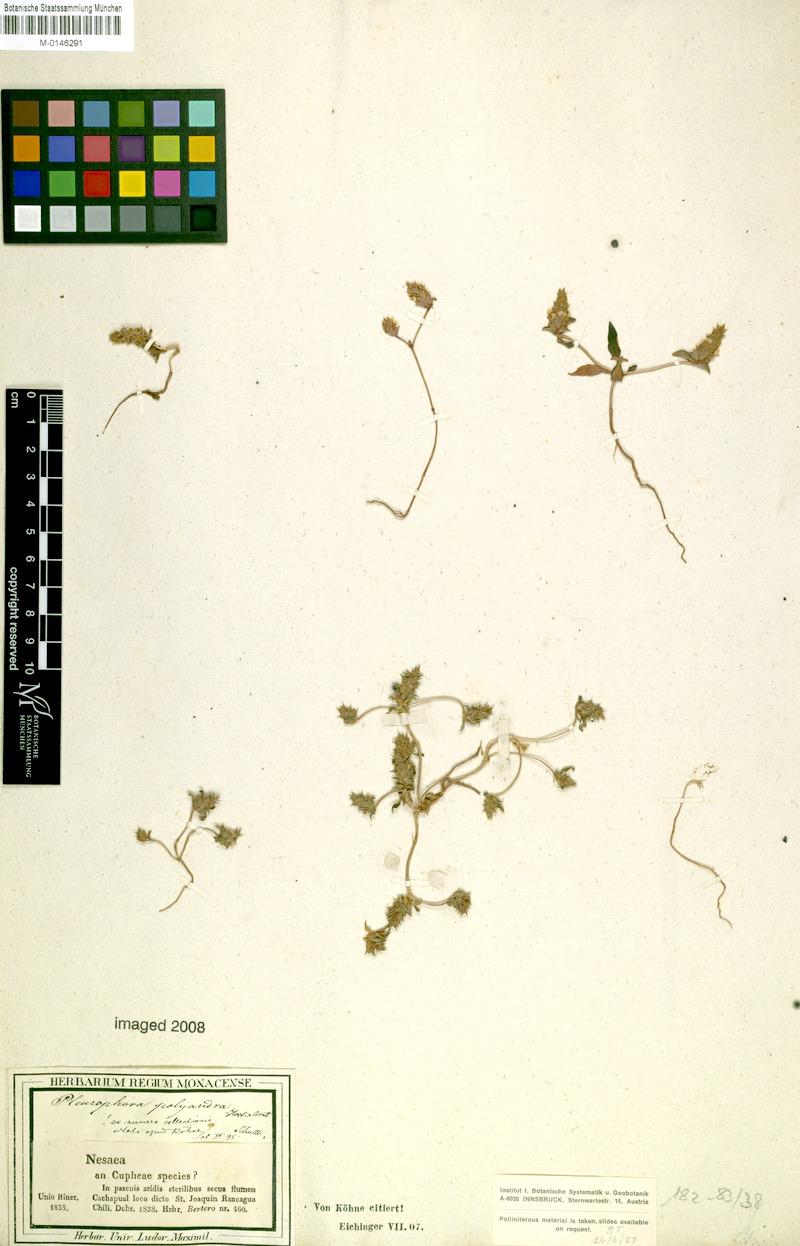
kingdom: Plantae
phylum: Tracheophyta
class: Magnoliopsida
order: Myrtales
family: Lythraceae
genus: Pleurophora
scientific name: Pleurophora polyandra
